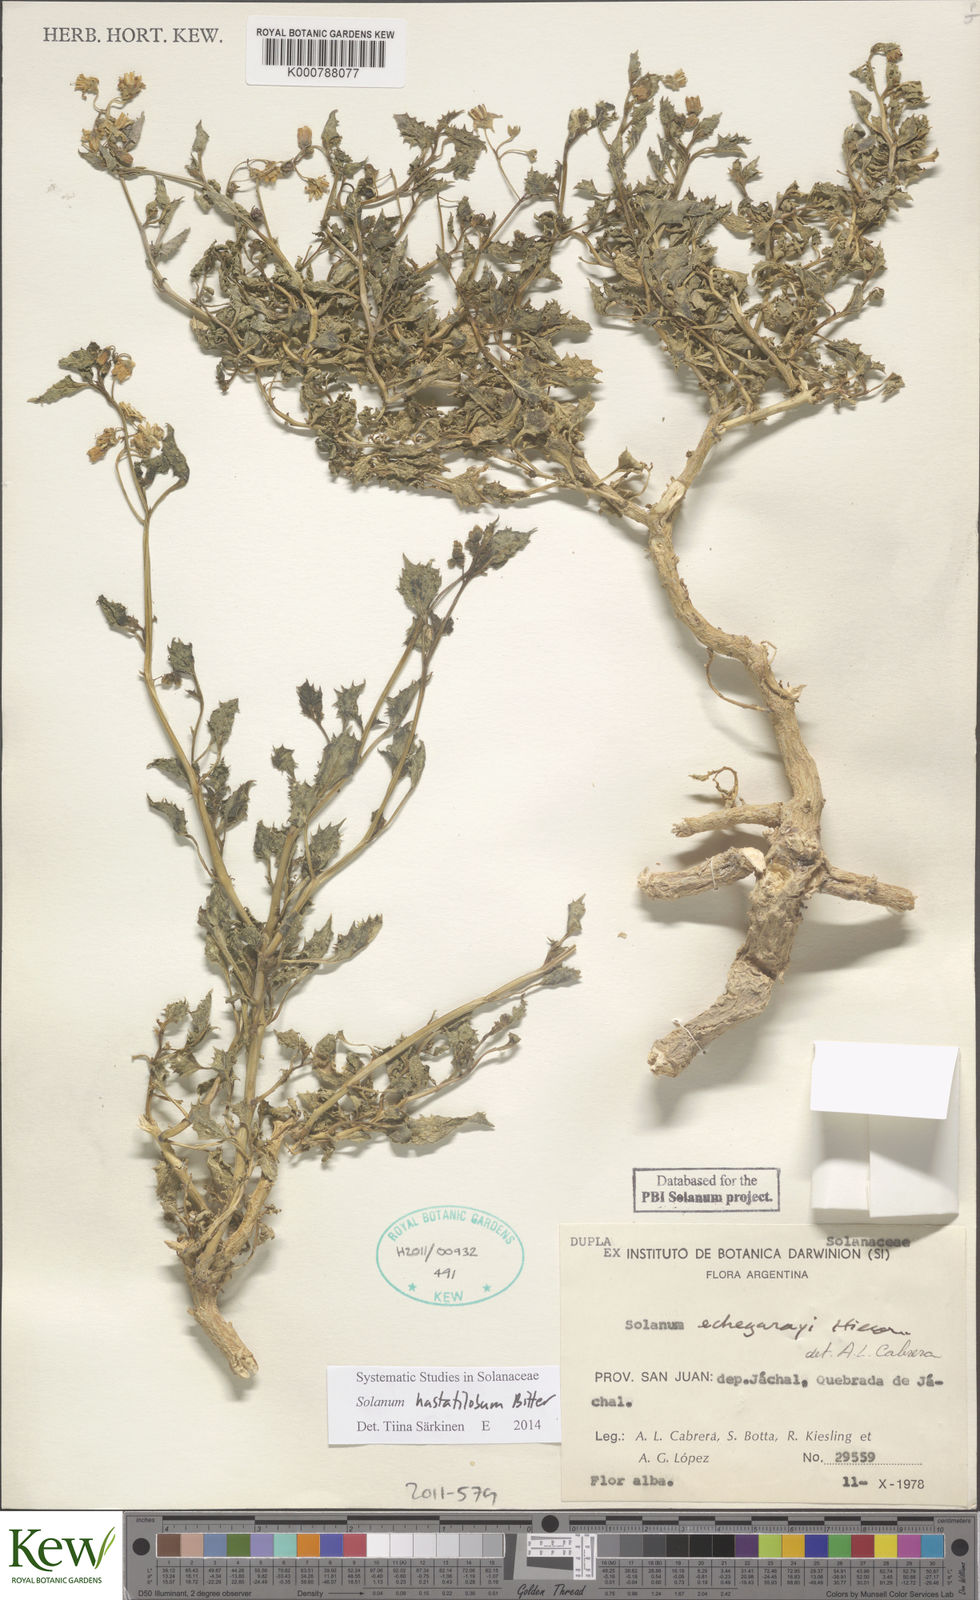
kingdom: Plantae
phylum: Tracheophyta
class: Magnoliopsida
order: Solanales
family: Solanaceae
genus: Solanum
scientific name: Solanum echegarayi
